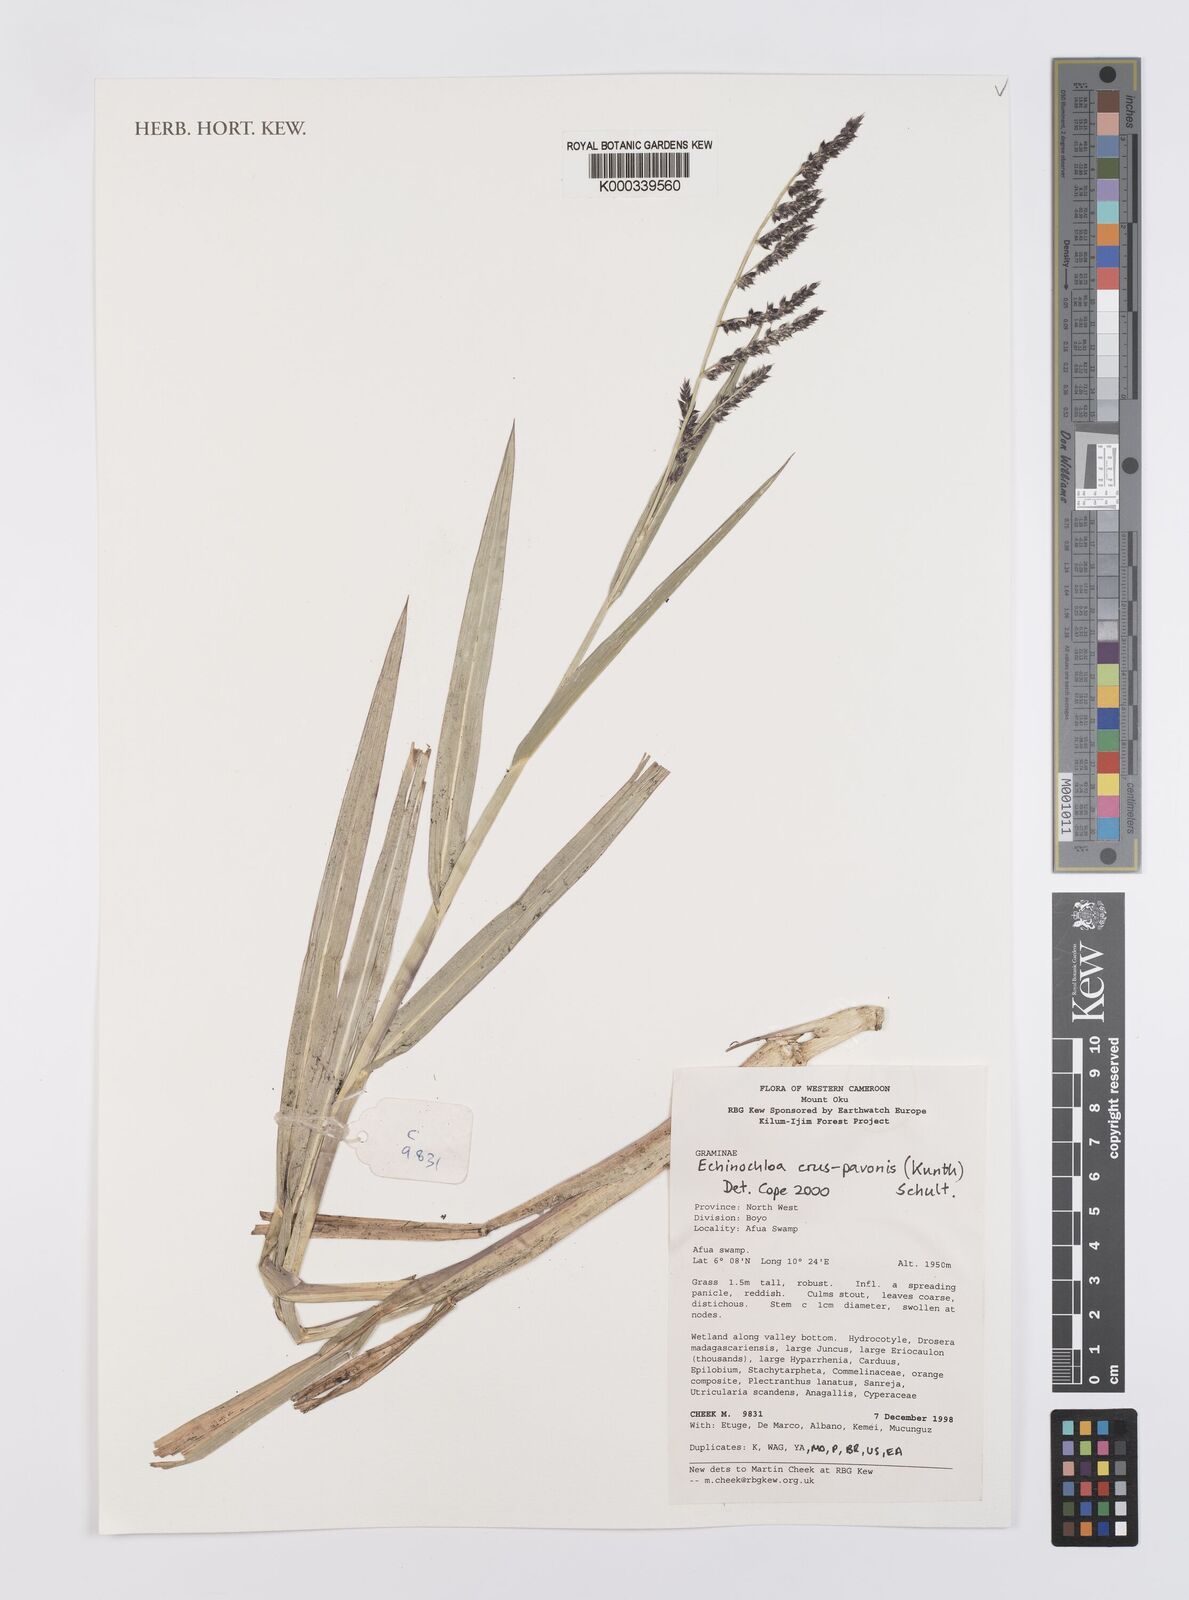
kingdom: Plantae
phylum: Tracheophyta
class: Liliopsida
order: Poales
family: Poaceae
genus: Echinochloa
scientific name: Echinochloa crus-pavonis
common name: Gulf cockspur grass
